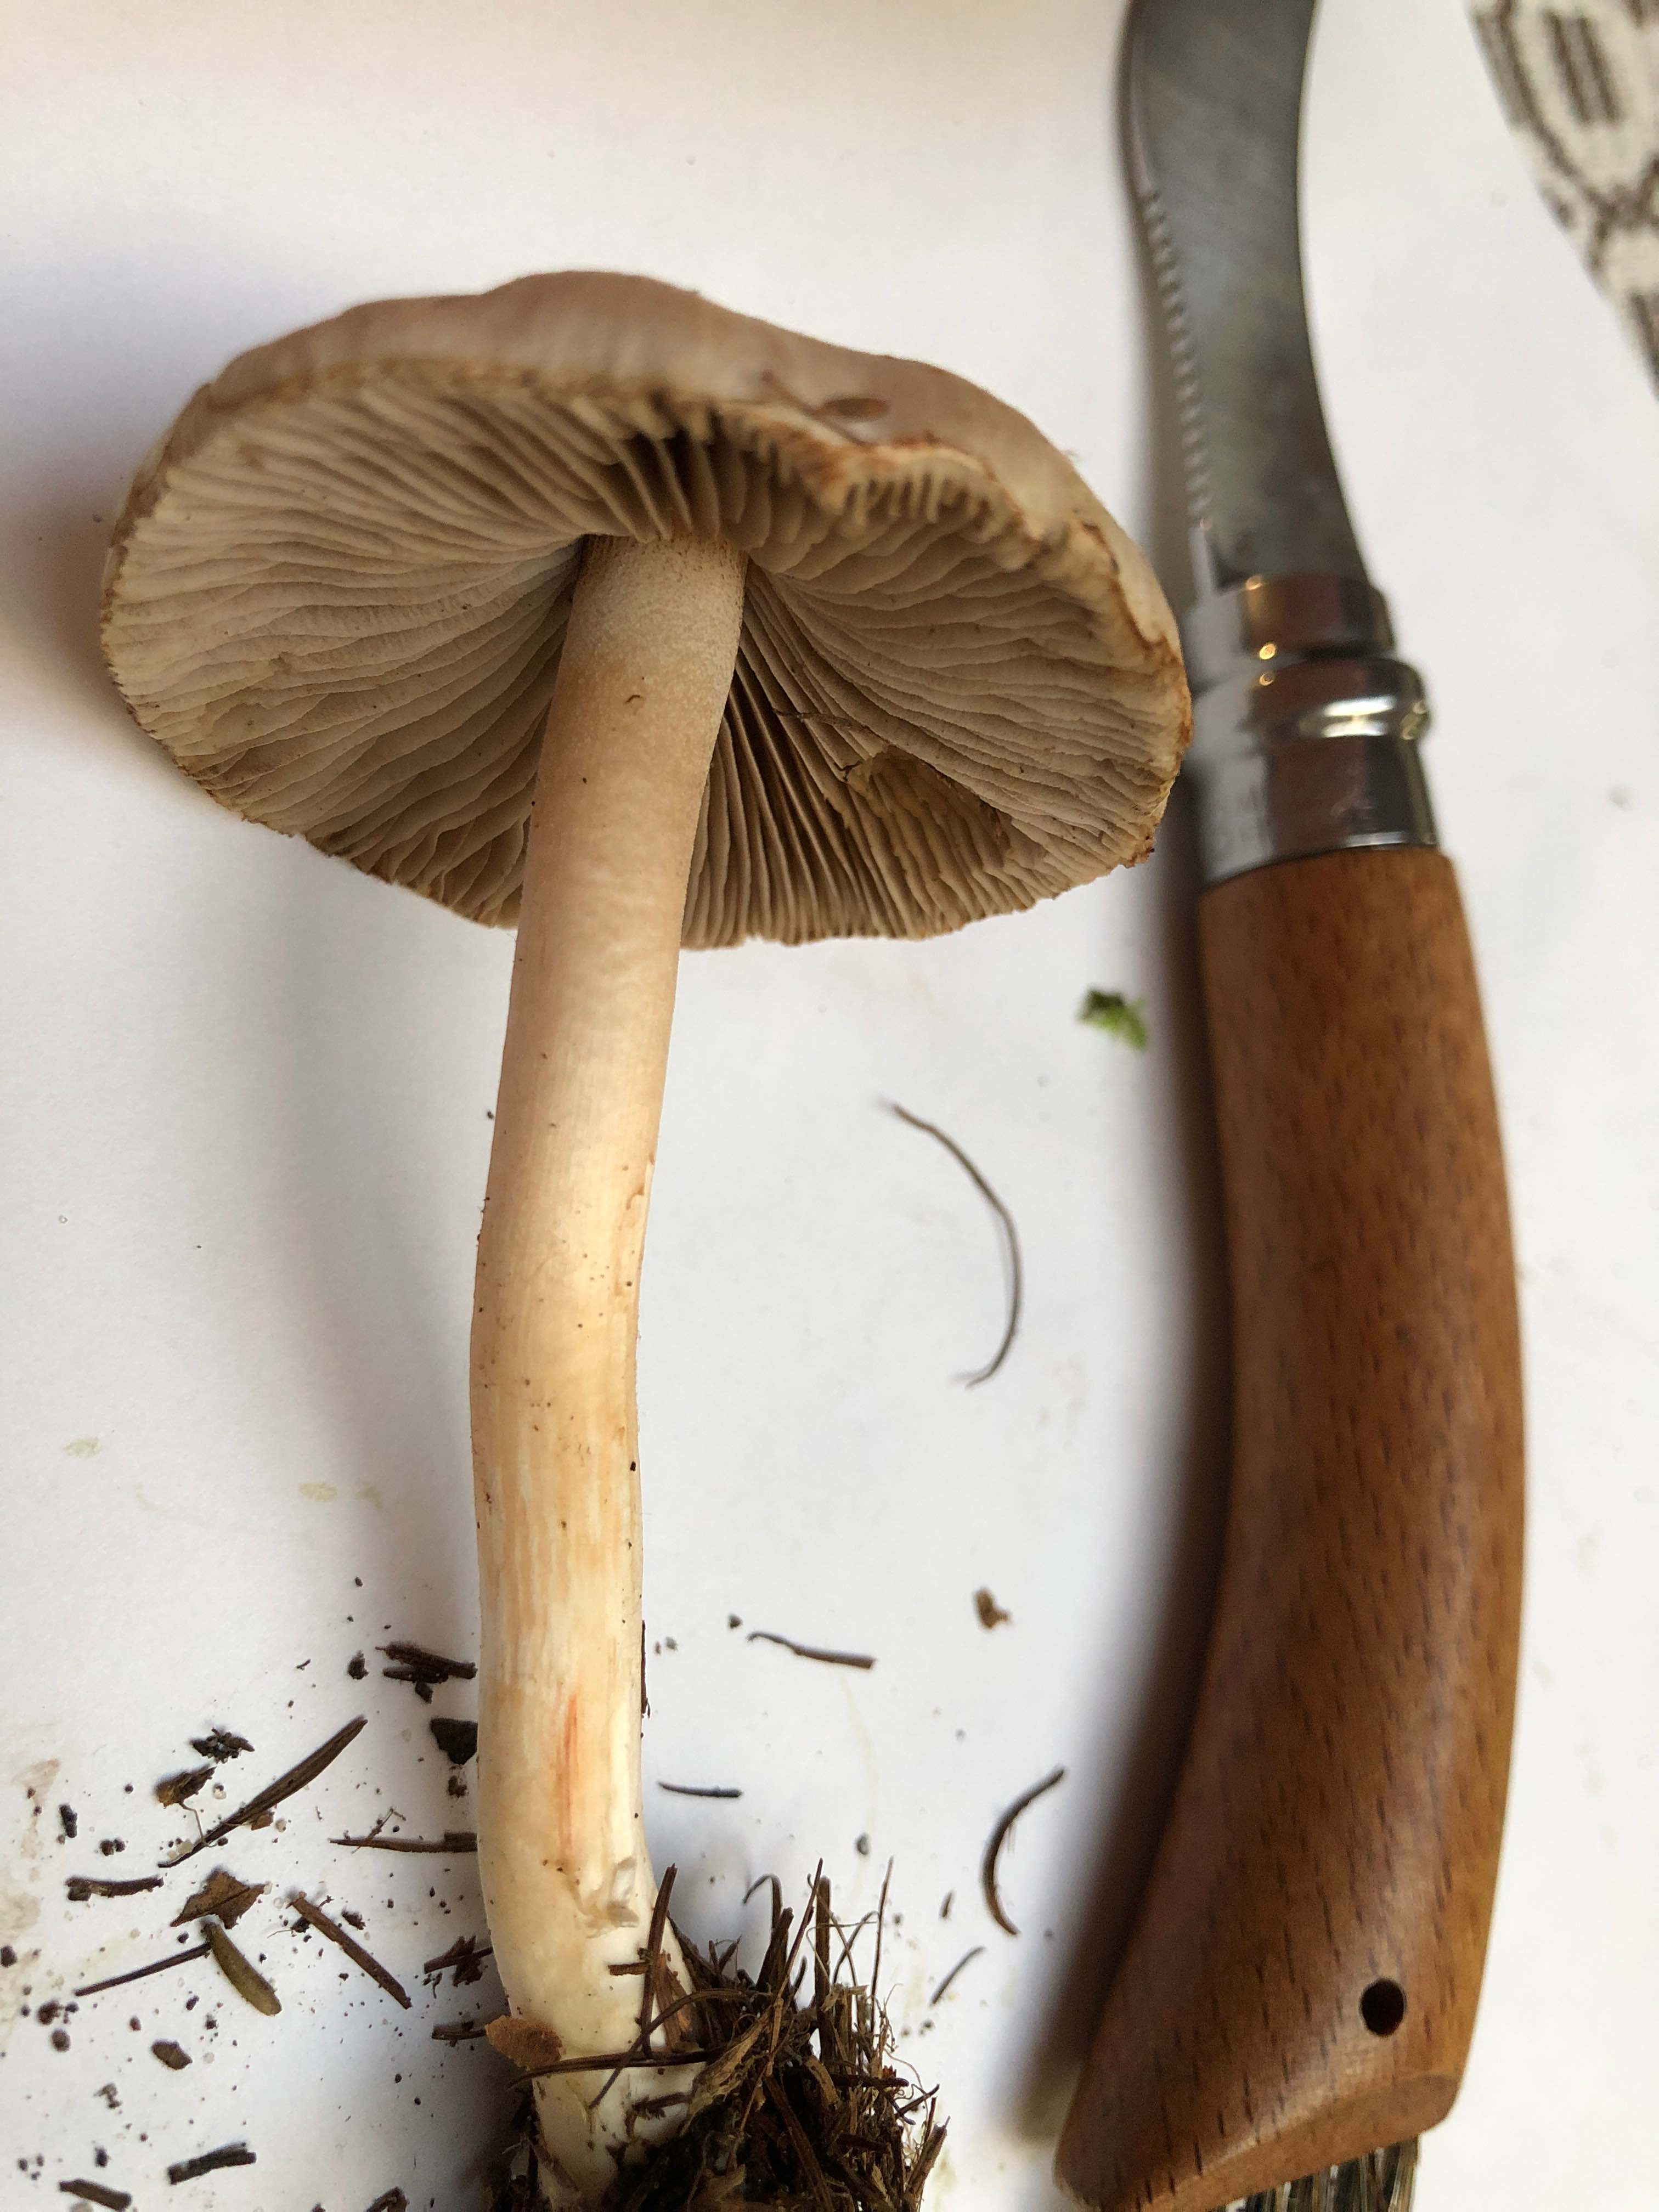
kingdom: Fungi
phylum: Basidiomycota
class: Agaricomycetes
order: Agaricales
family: Inocybaceae
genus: Inocybe
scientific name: Inocybe
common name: trævlhat
